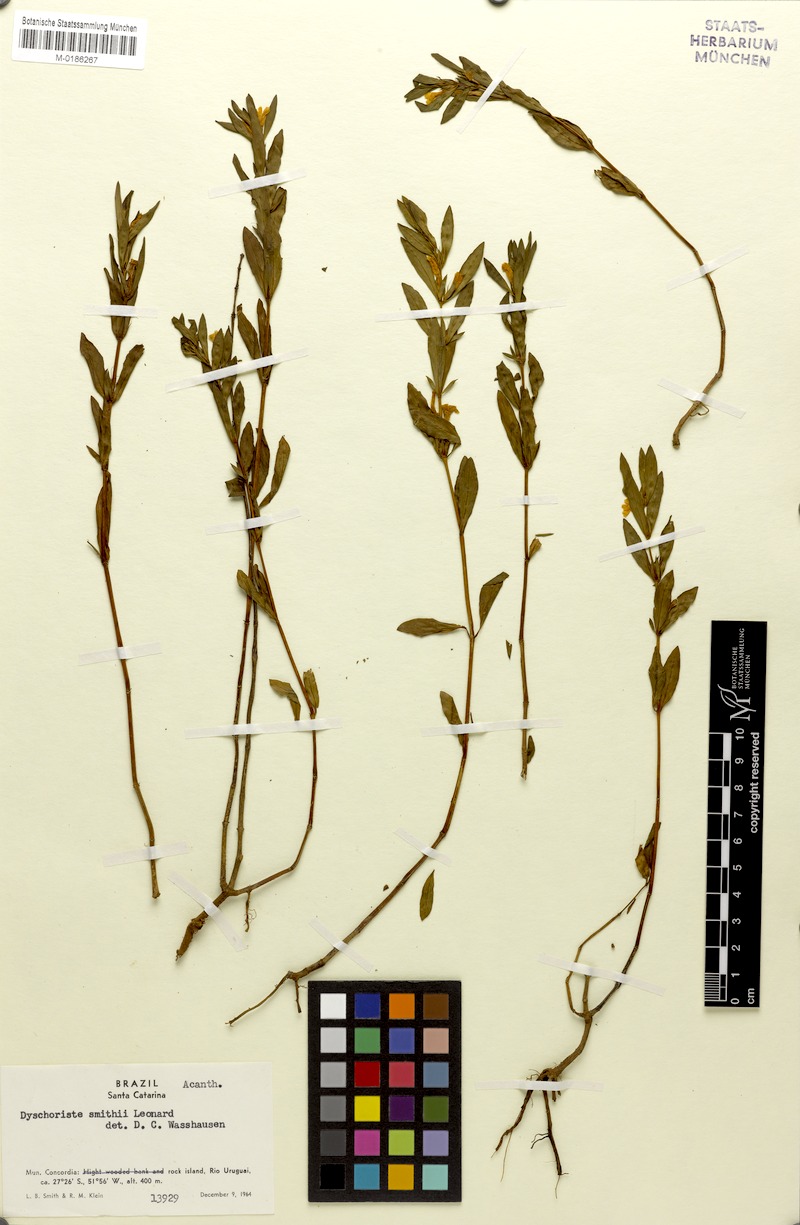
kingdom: Plantae
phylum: Tracheophyta
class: Magnoliopsida
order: Lamiales
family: Acanthaceae
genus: Dyschoriste
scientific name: Dyschoriste smithii
